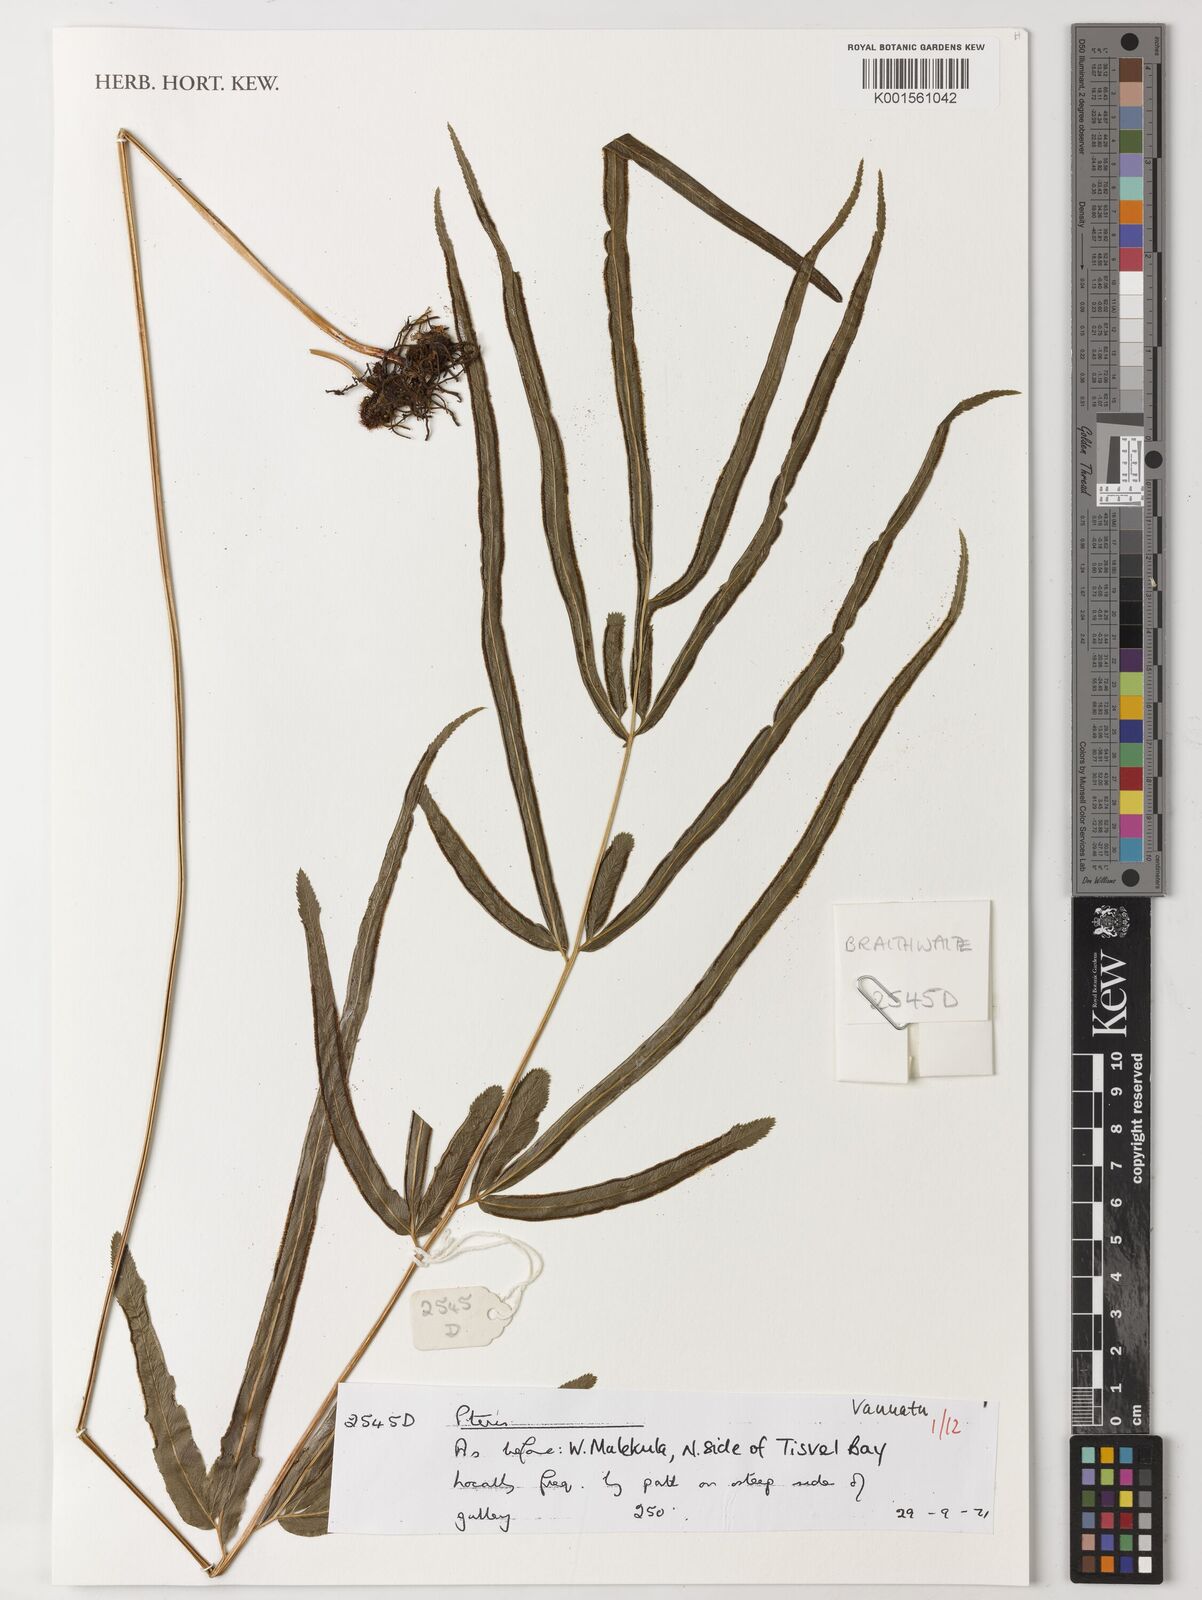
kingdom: Plantae
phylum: Tracheophyta
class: Polypodiopsida
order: Polypodiales
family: Pteridaceae
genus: Pteris
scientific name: Pteris
